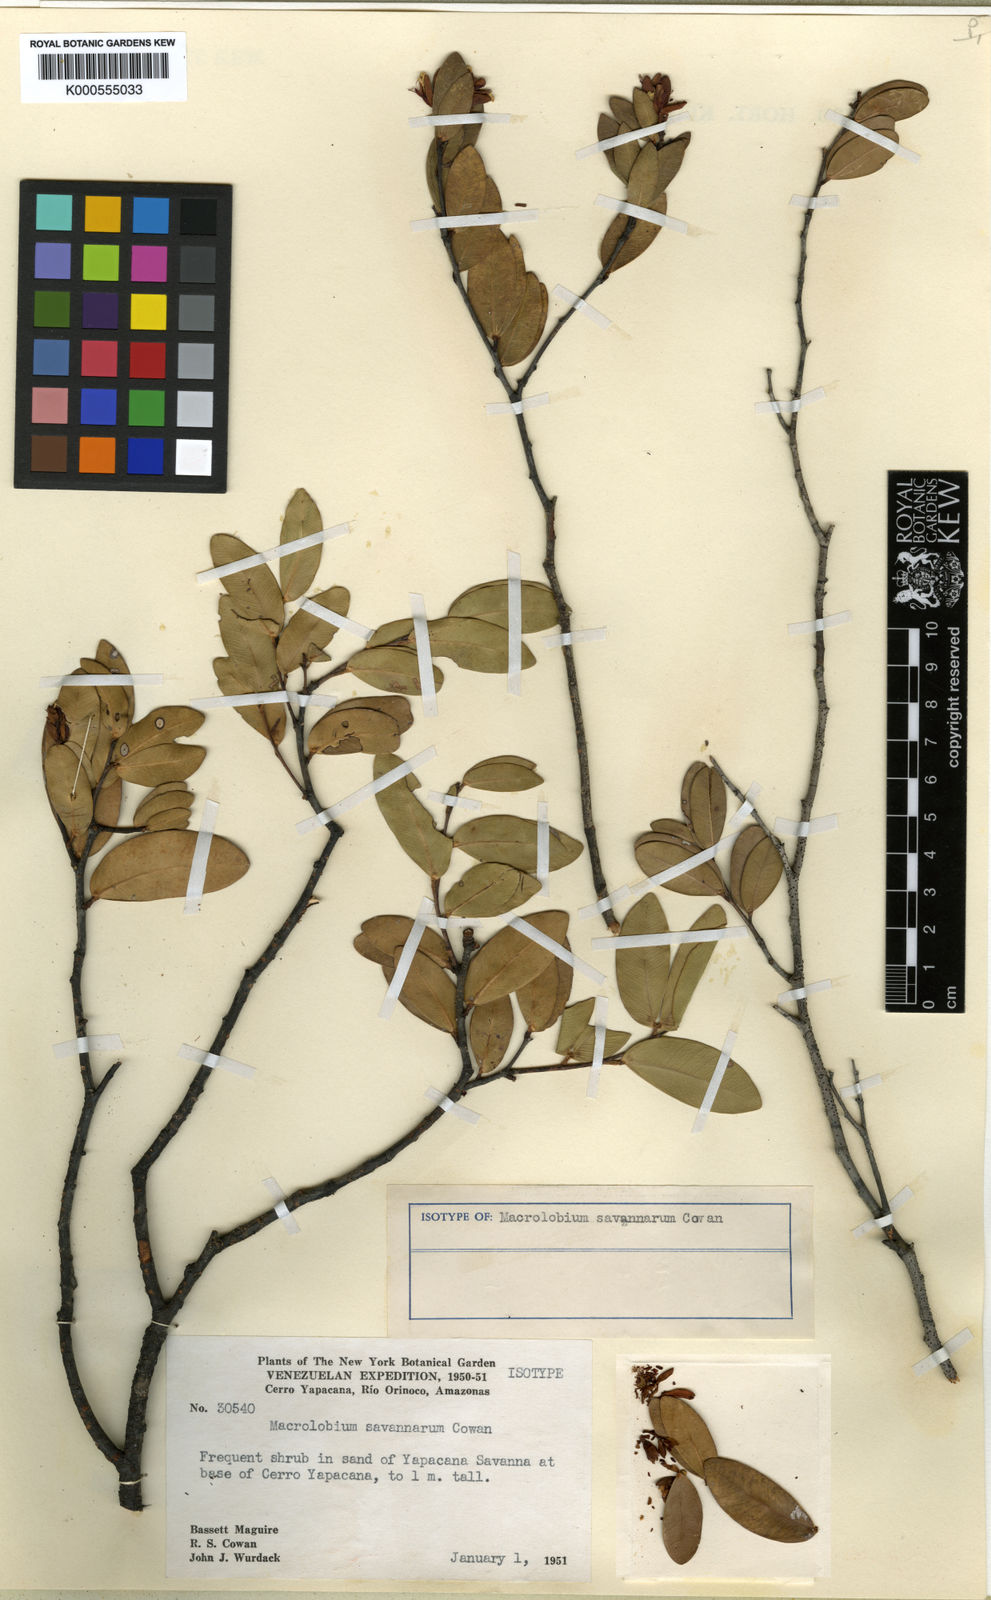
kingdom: Plantae
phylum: Tracheophyta
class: Magnoliopsida
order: Fabales
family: Fabaceae
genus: Macrolobium
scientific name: Macrolobium savannarum
